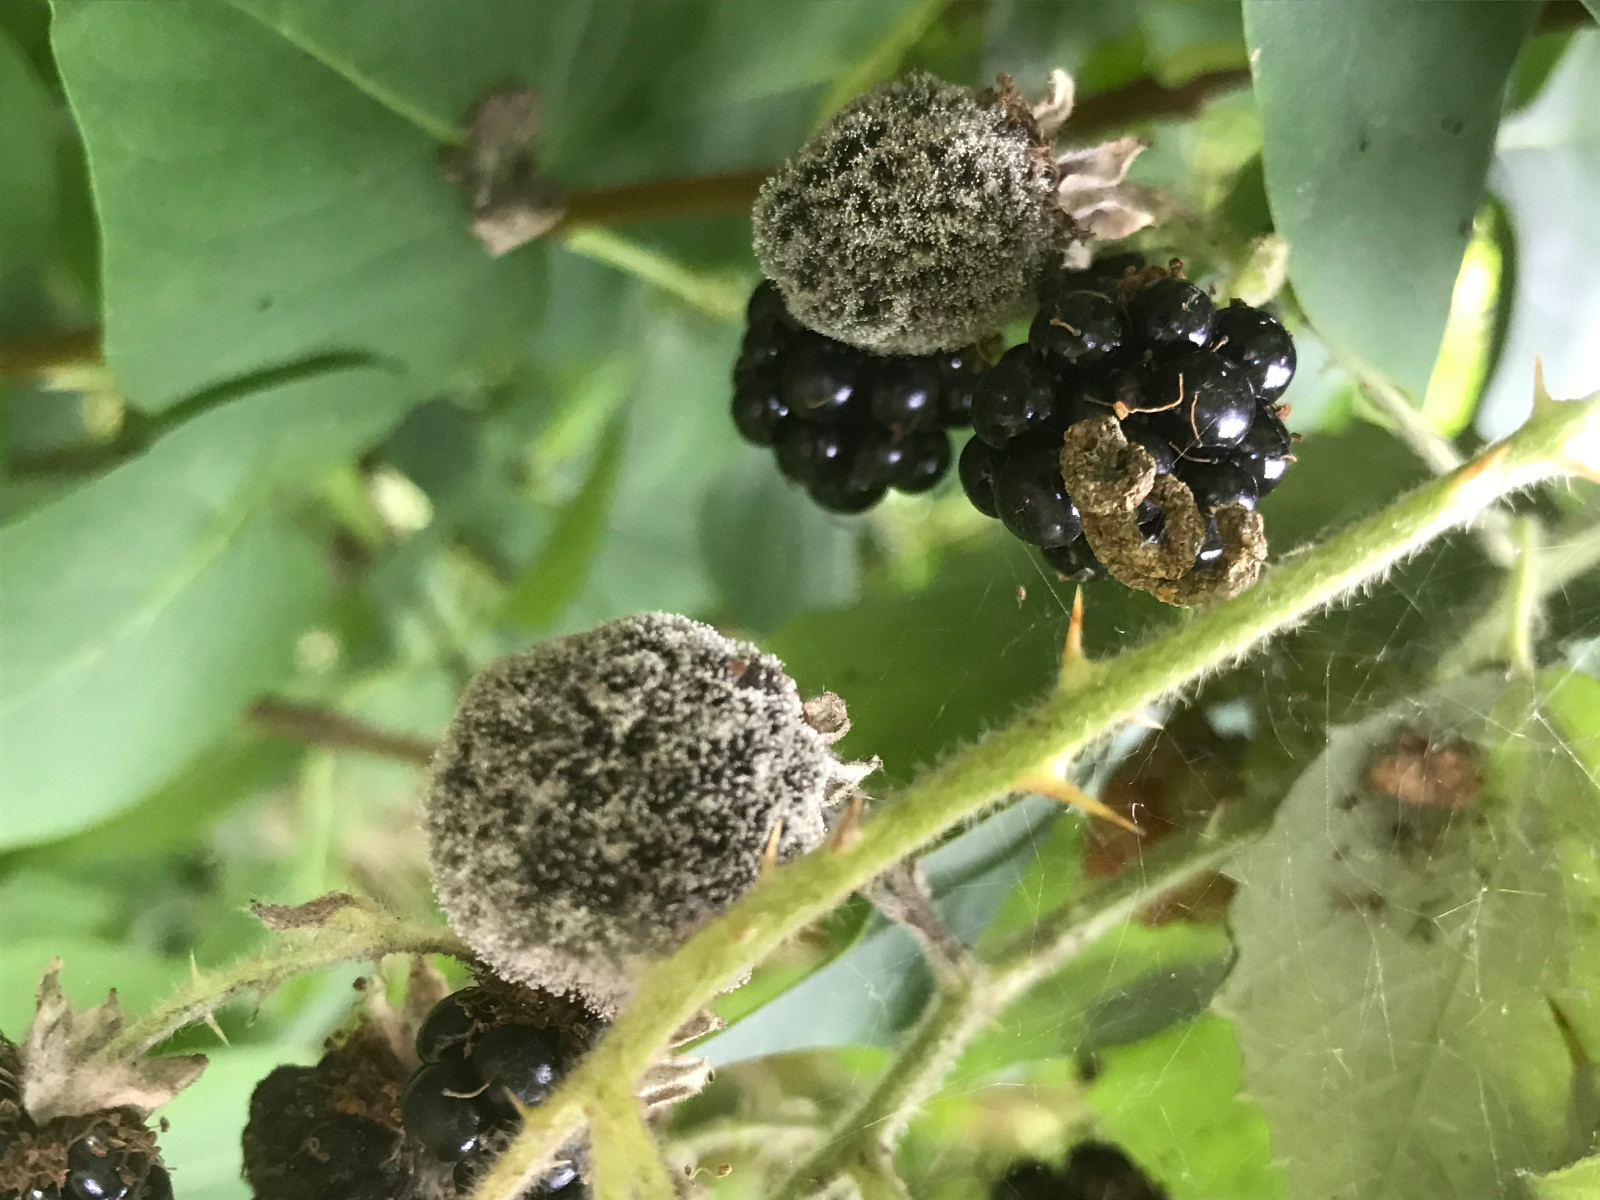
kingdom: Fungi
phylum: Ascomycota
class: Leotiomycetes
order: Helotiales
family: Sclerotiniaceae
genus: Botrytis
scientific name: Botrytis cinerea
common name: Grey mould
